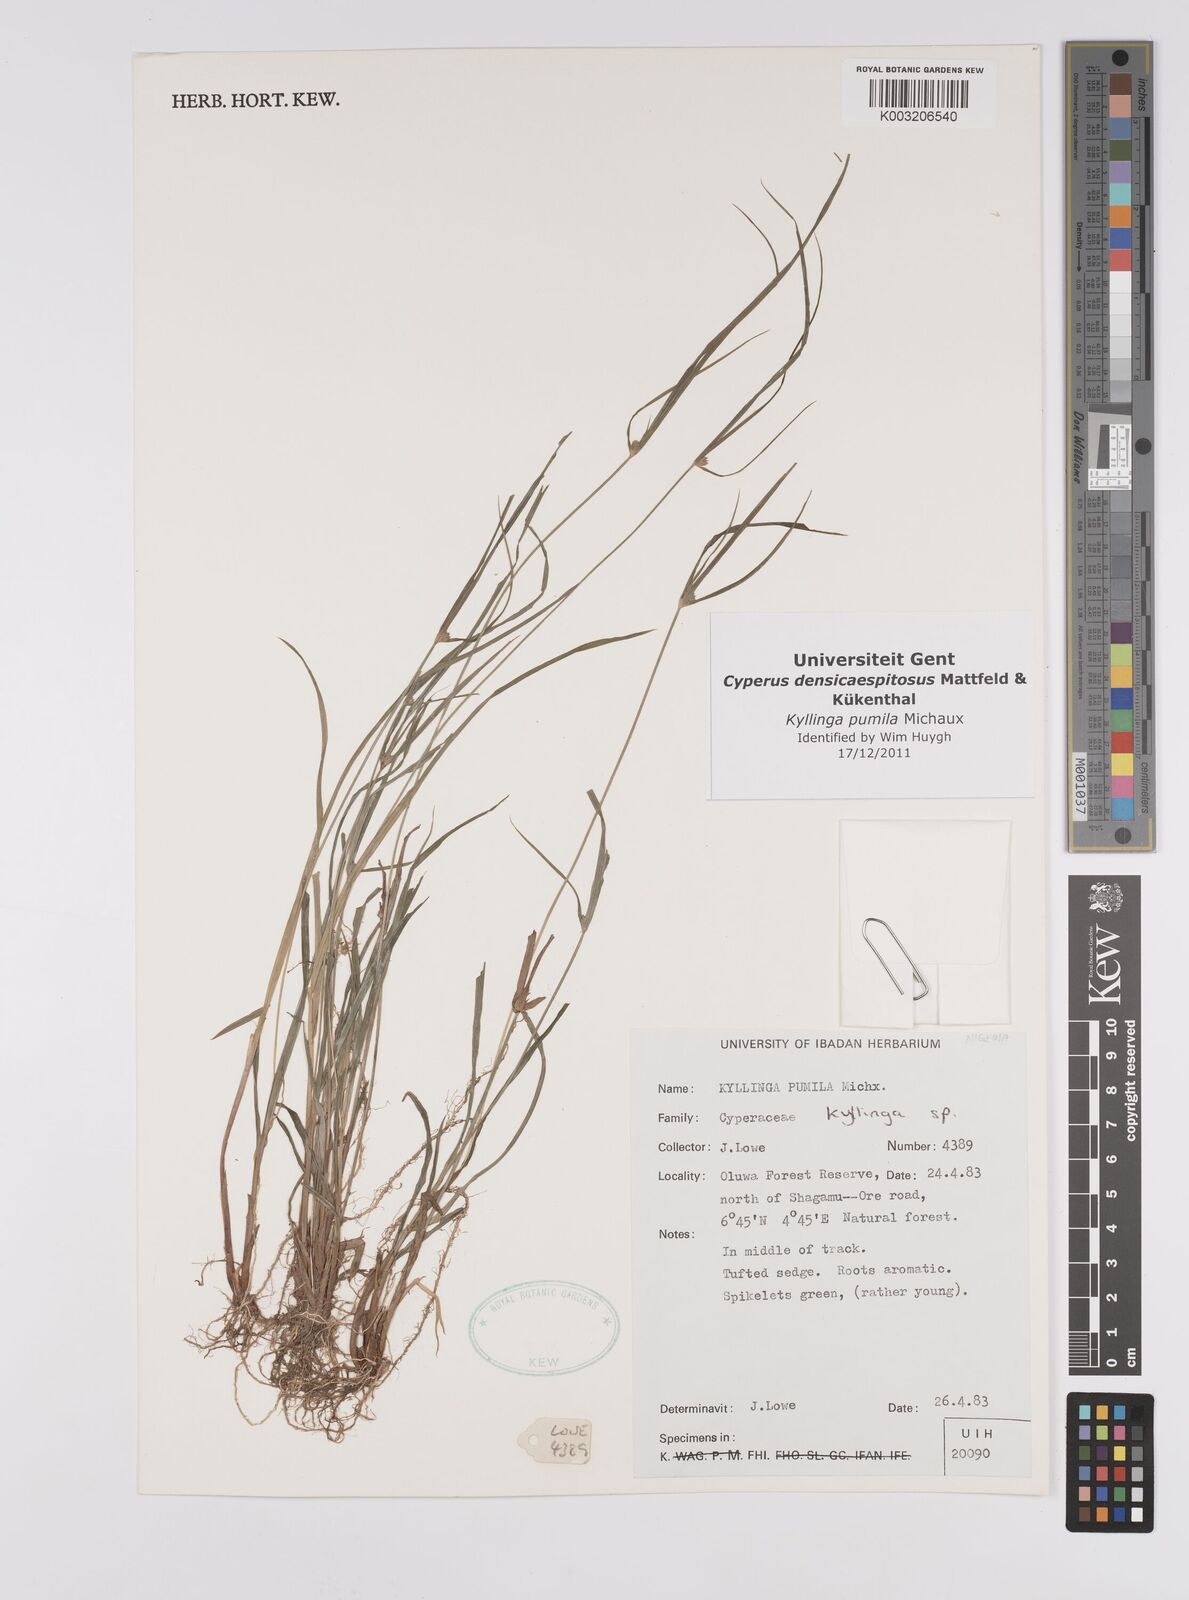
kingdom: Plantae
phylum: Tracheophyta
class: Liliopsida
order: Poales
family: Cyperaceae
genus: Cyperus
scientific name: Cyperus
